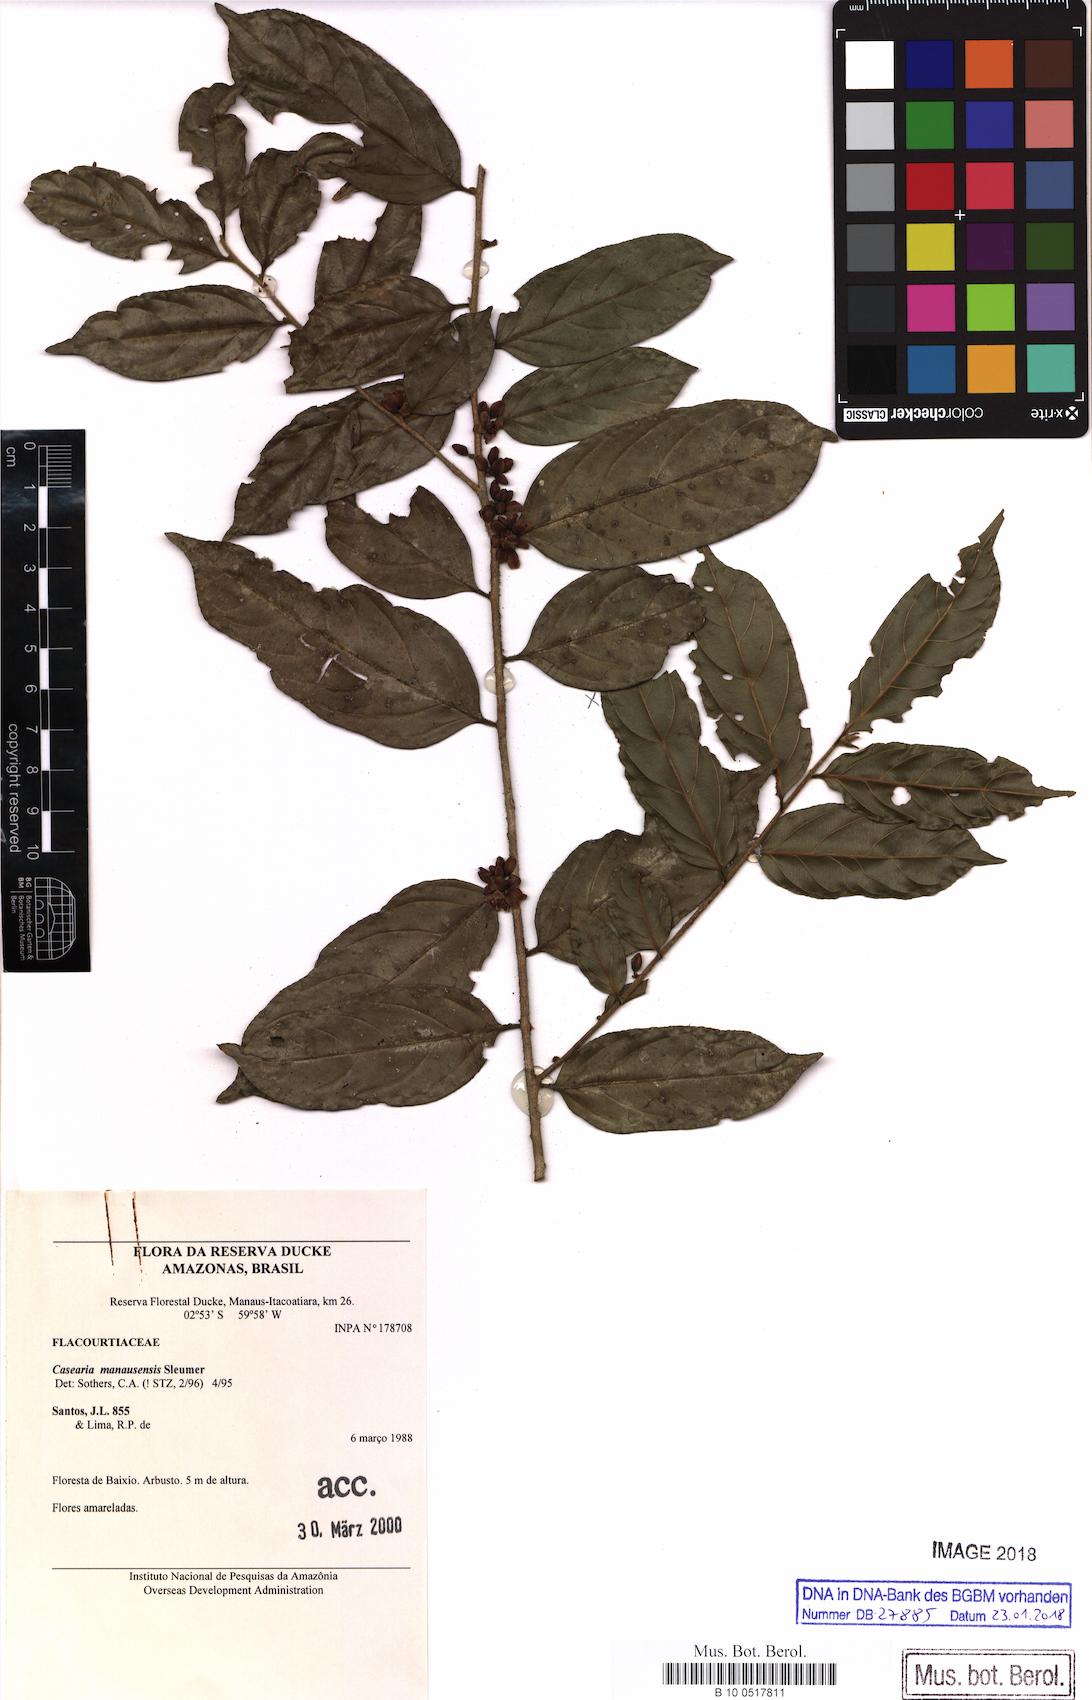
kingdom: Plantae
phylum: Tracheophyta
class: Magnoliopsida
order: Malpighiales
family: Salicaceae
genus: Casearia
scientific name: Casearia manausensis
